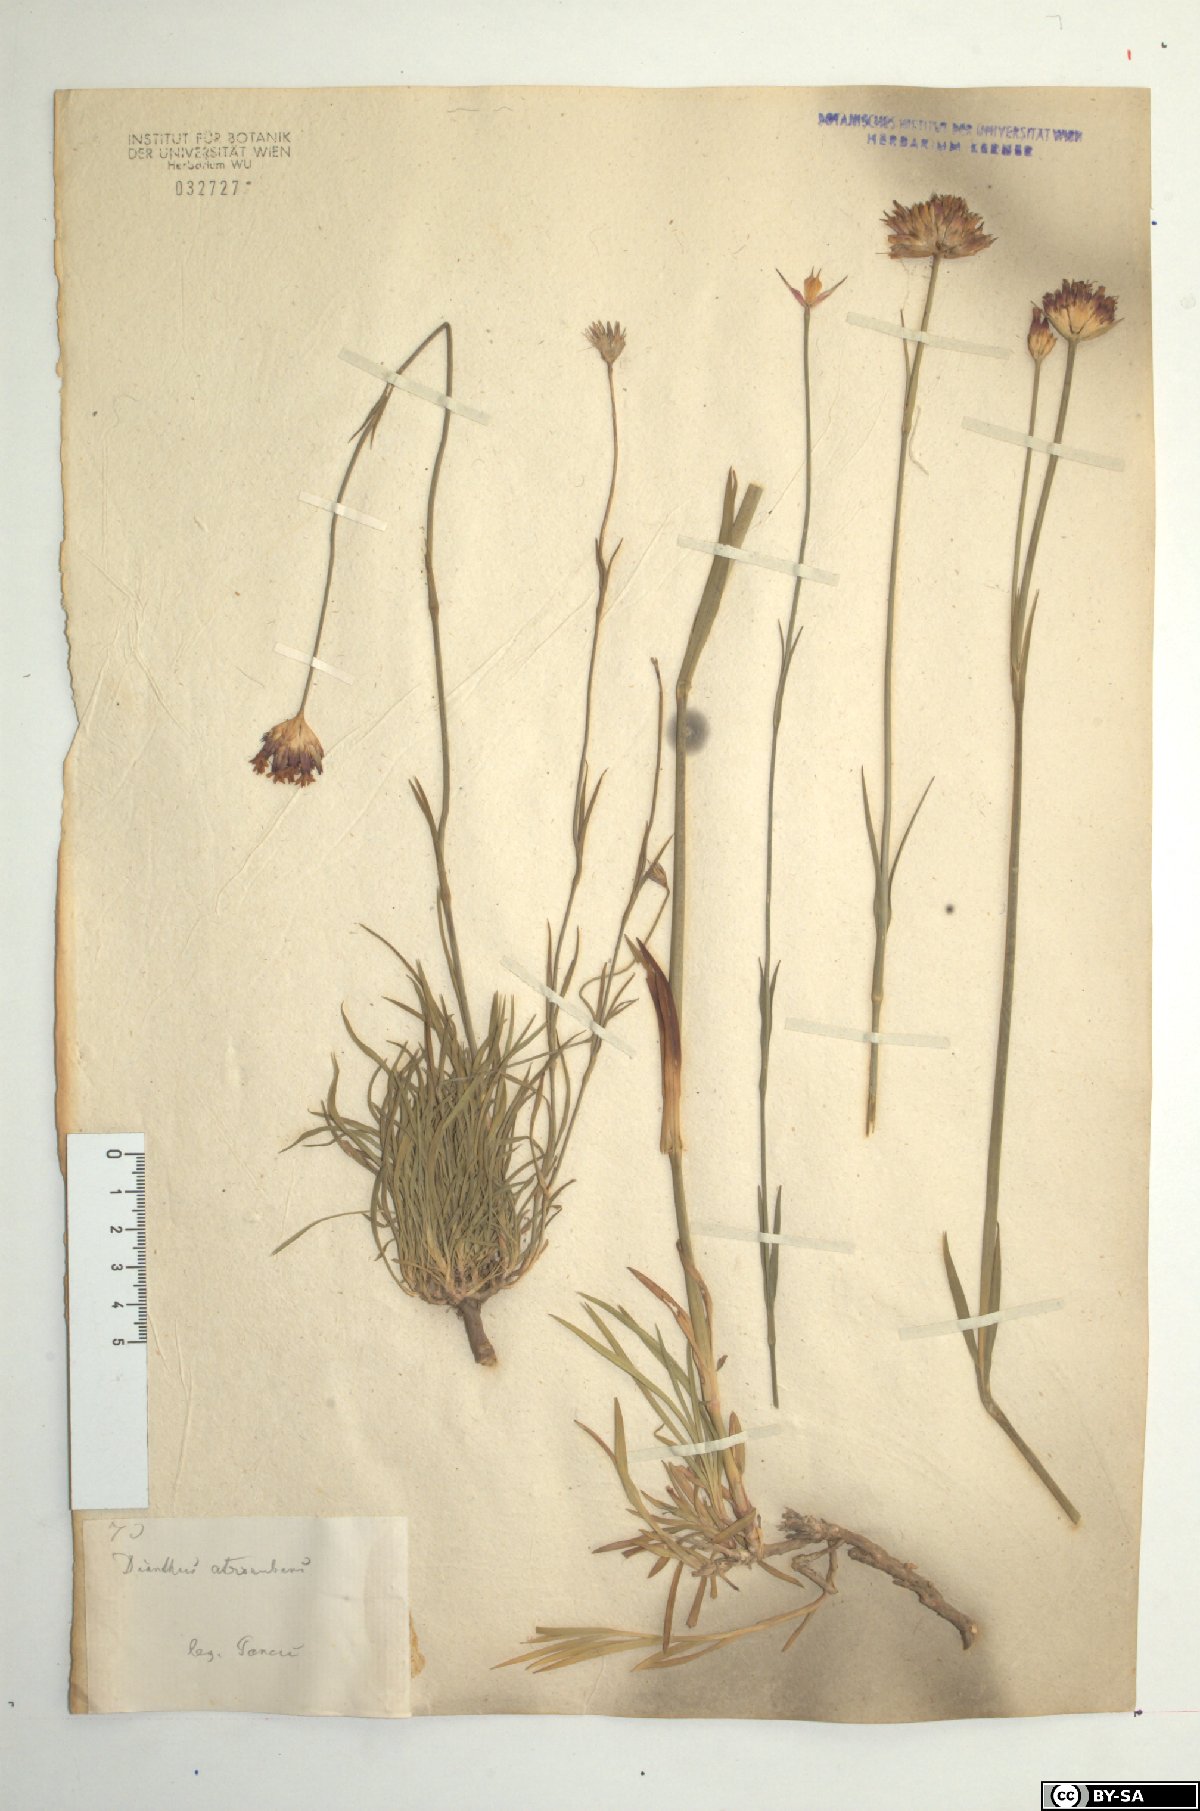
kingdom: Plantae
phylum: Tracheophyta
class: Magnoliopsida
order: Caryophyllales
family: Caryophyllaceae
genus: Dianthus
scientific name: Dianthus pontederae
